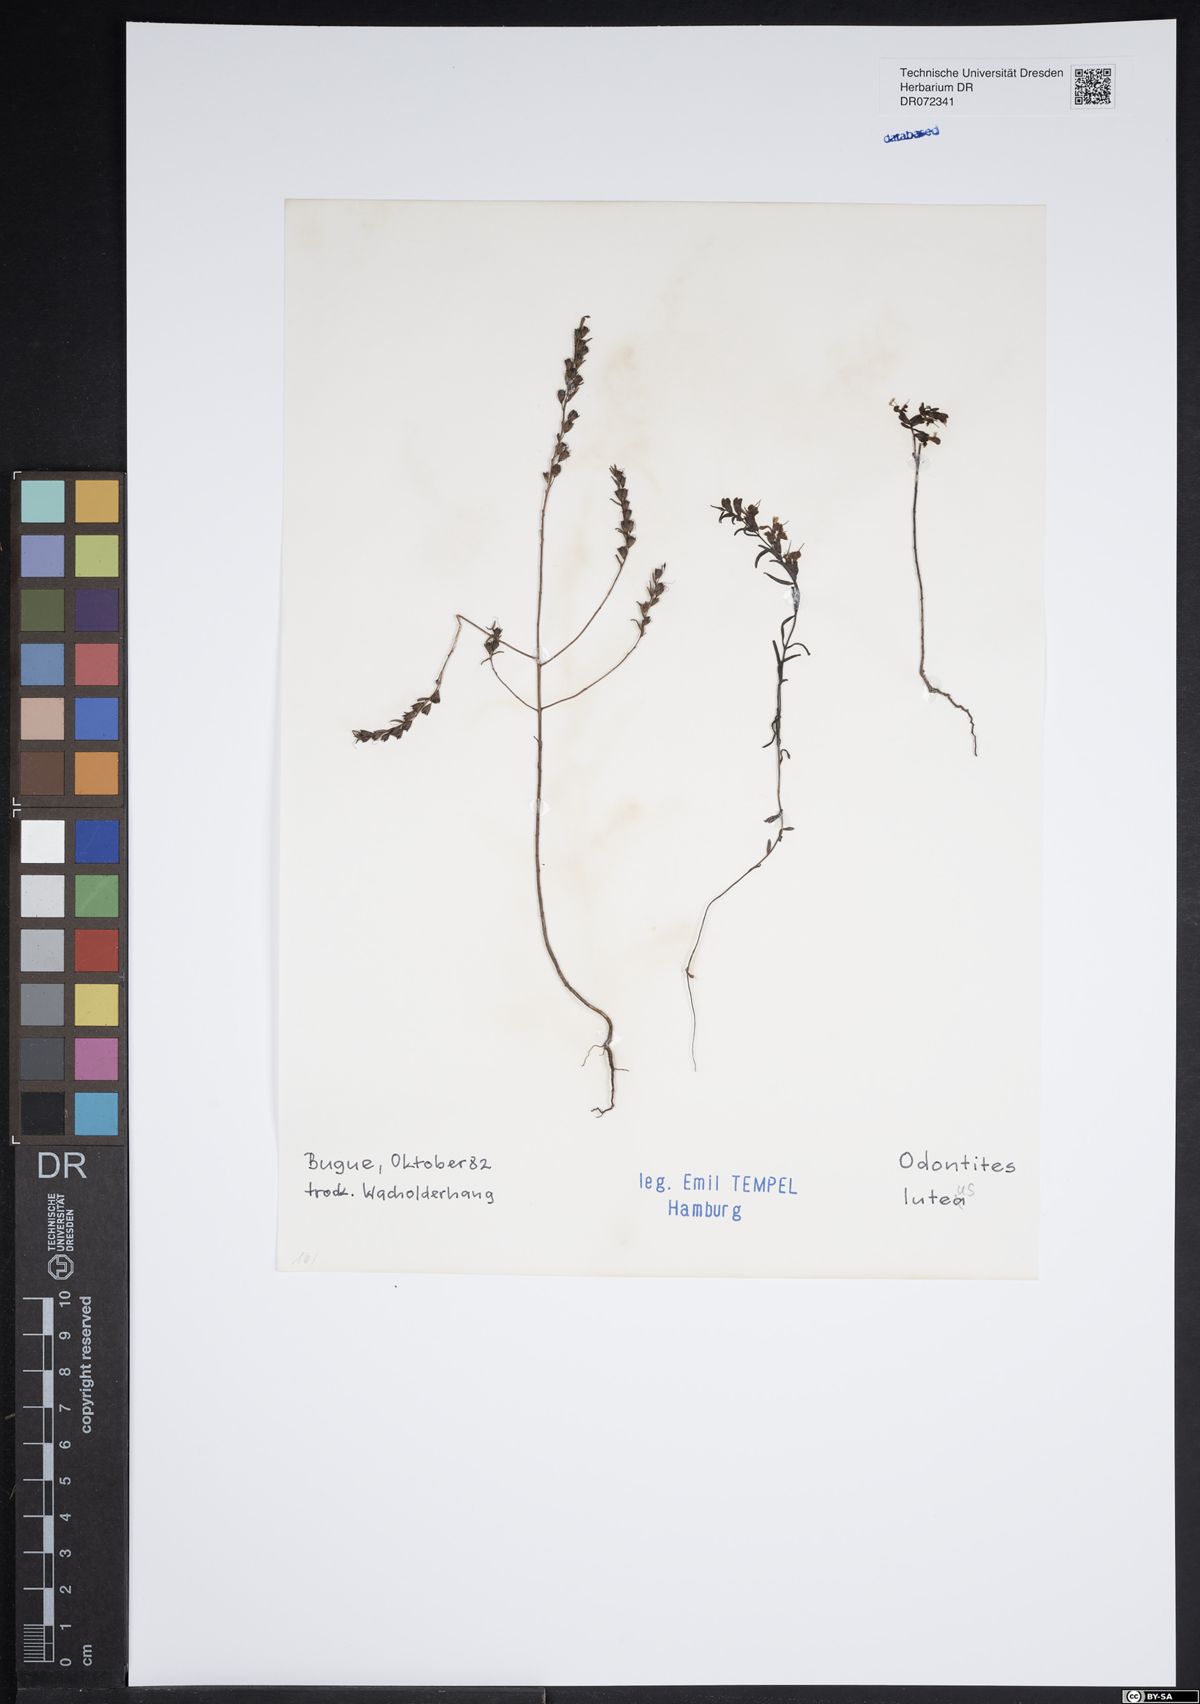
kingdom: Plantae
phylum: Tracheophyta
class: Magnoliopsida
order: Lamiales
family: Orobanchaceae
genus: Odontites
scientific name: Odontites luteus
